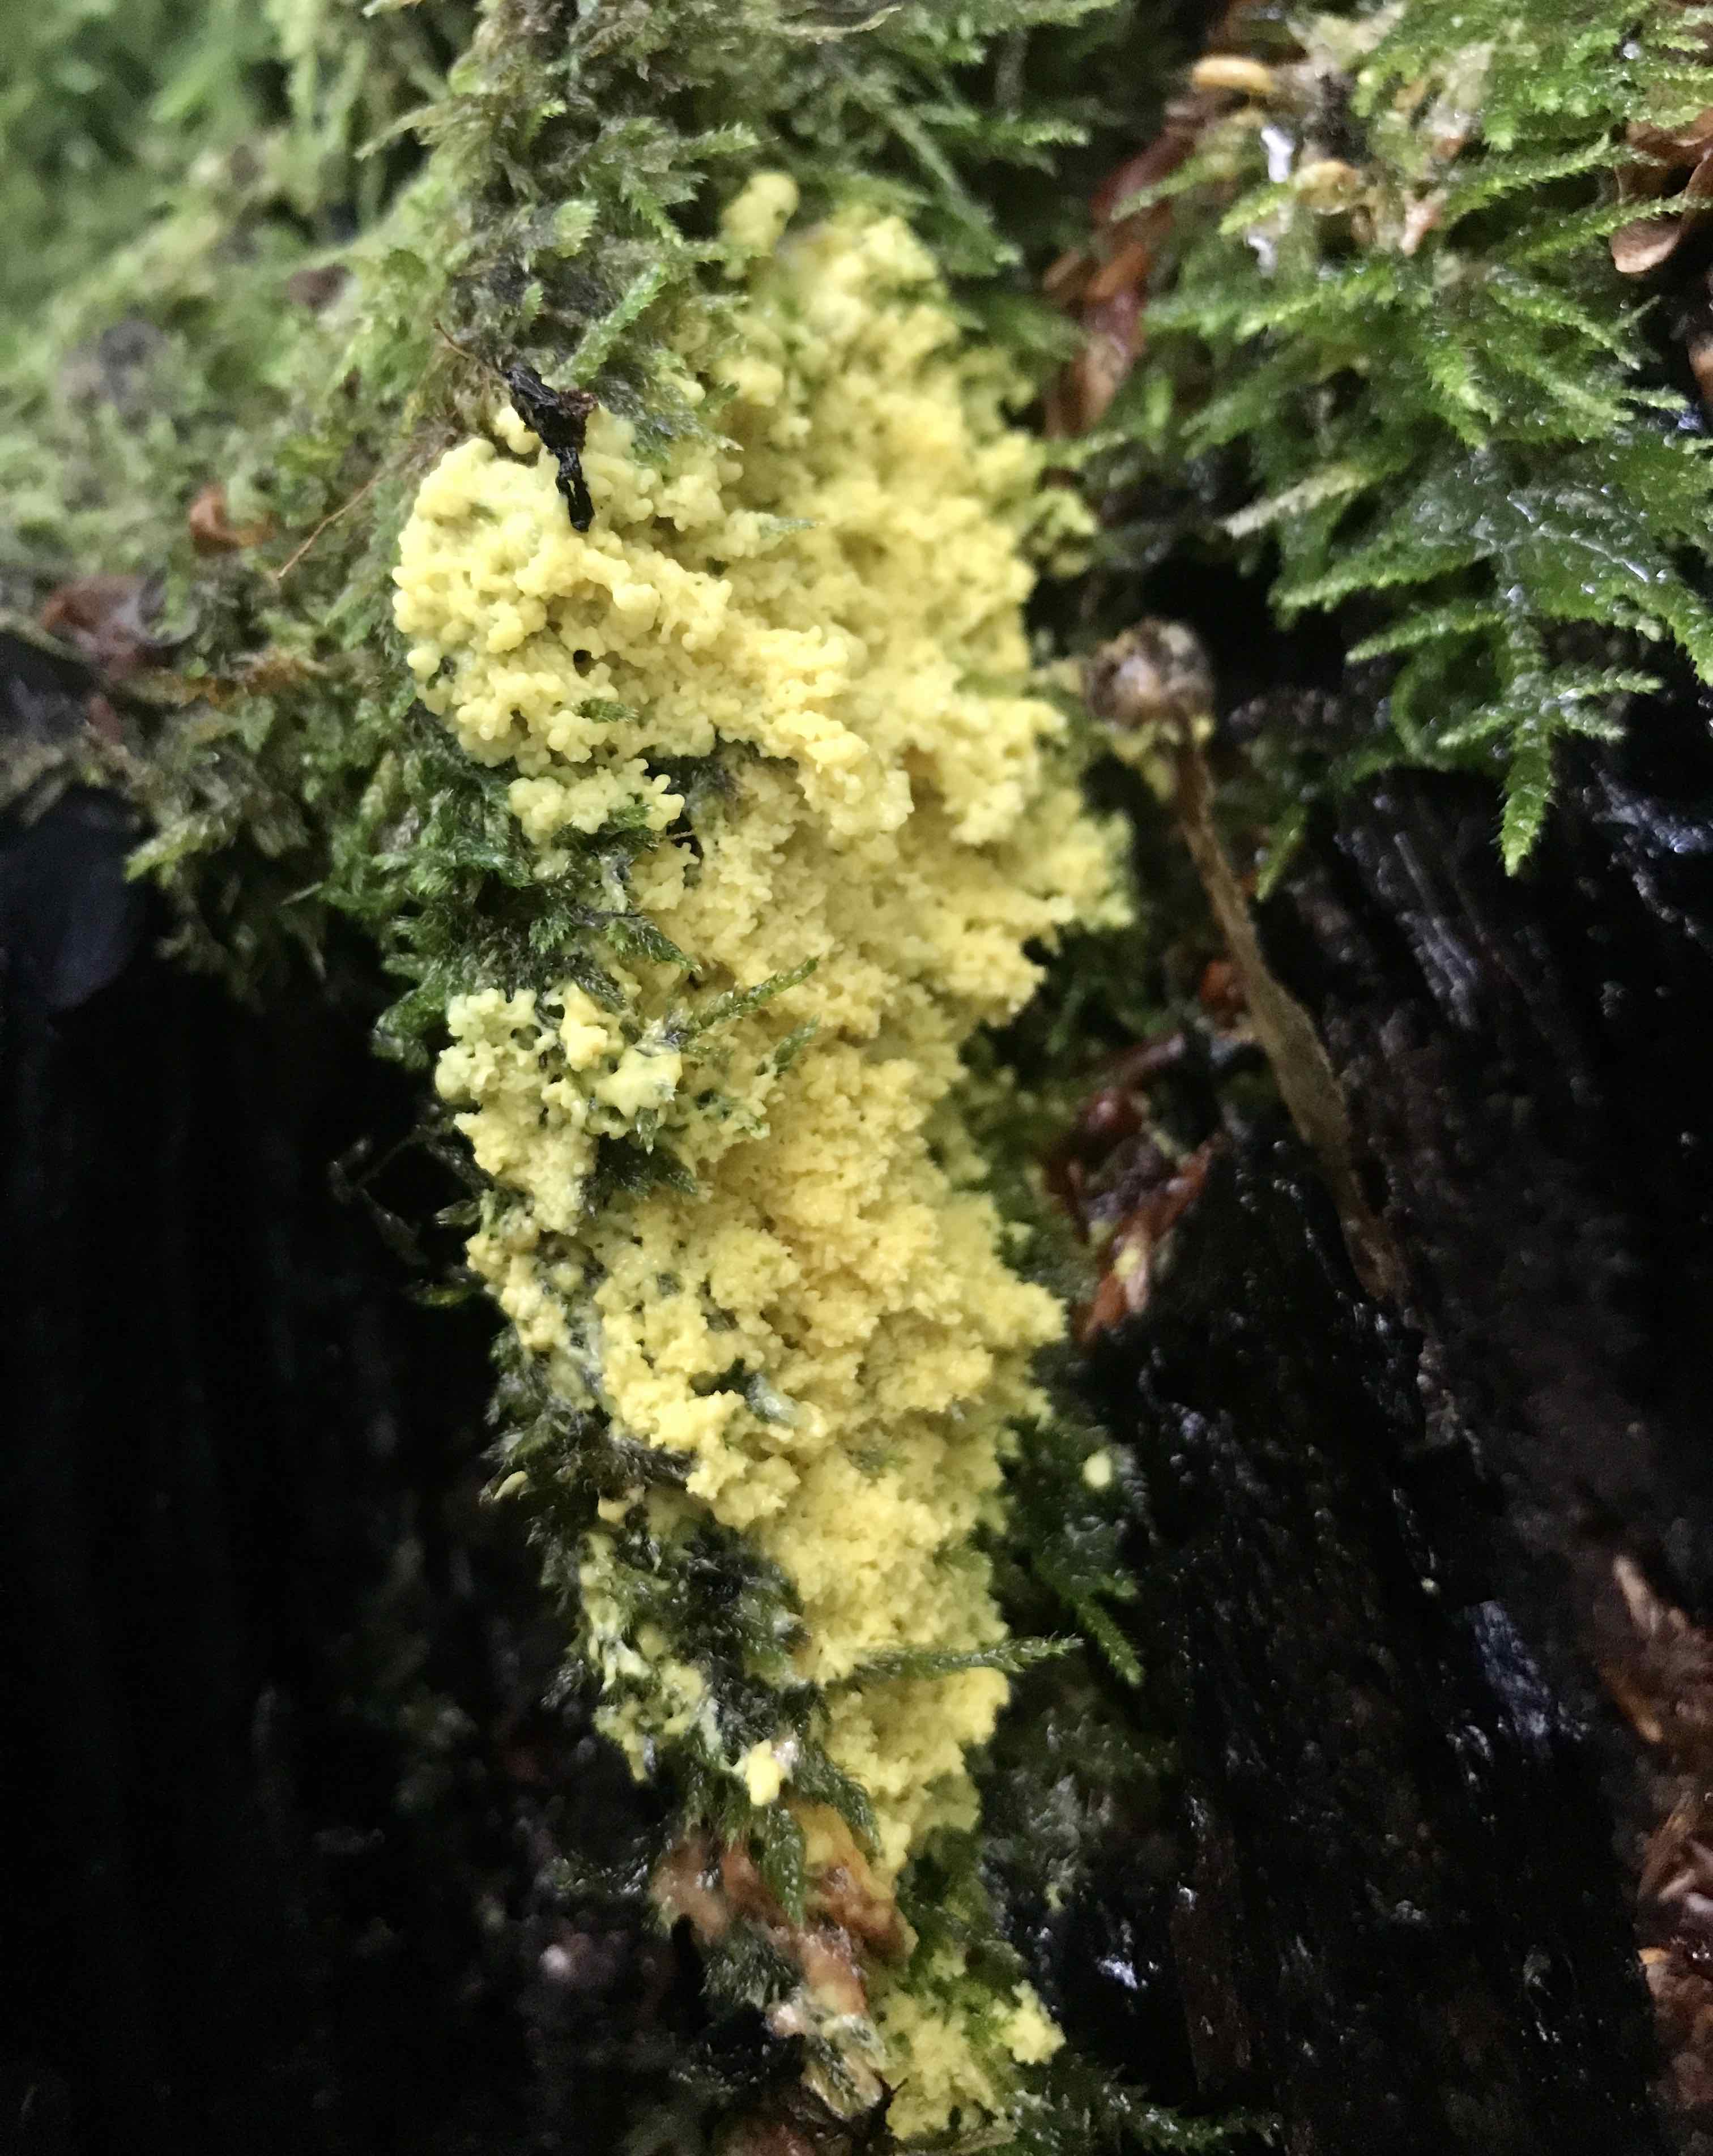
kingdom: Protozoa
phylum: Mycetozoa
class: Myxomycetes
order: Physarales
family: Physaraceae
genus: Fuligo
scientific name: Fuligo septica
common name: gul troldsmør
